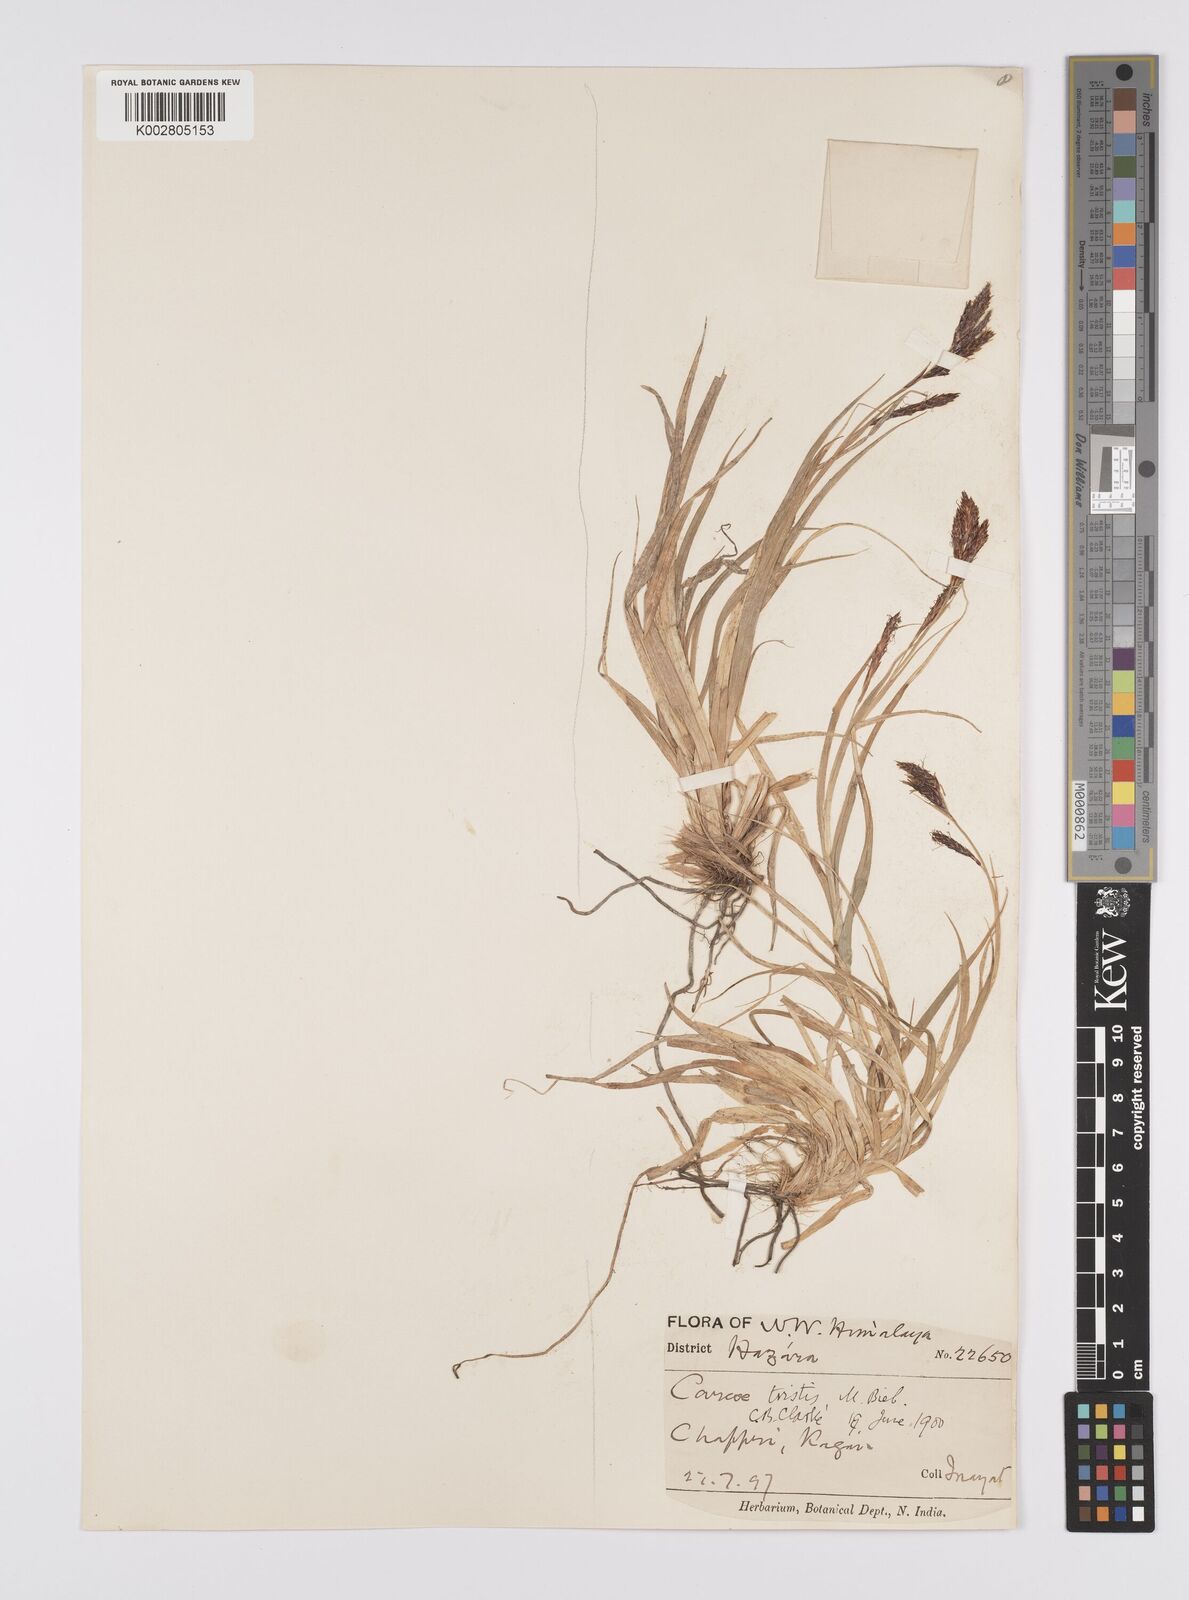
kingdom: Plantae
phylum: Tracheophyta
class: Liliopsida
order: Poales
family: Cyperaceae
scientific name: Cyperaceae
